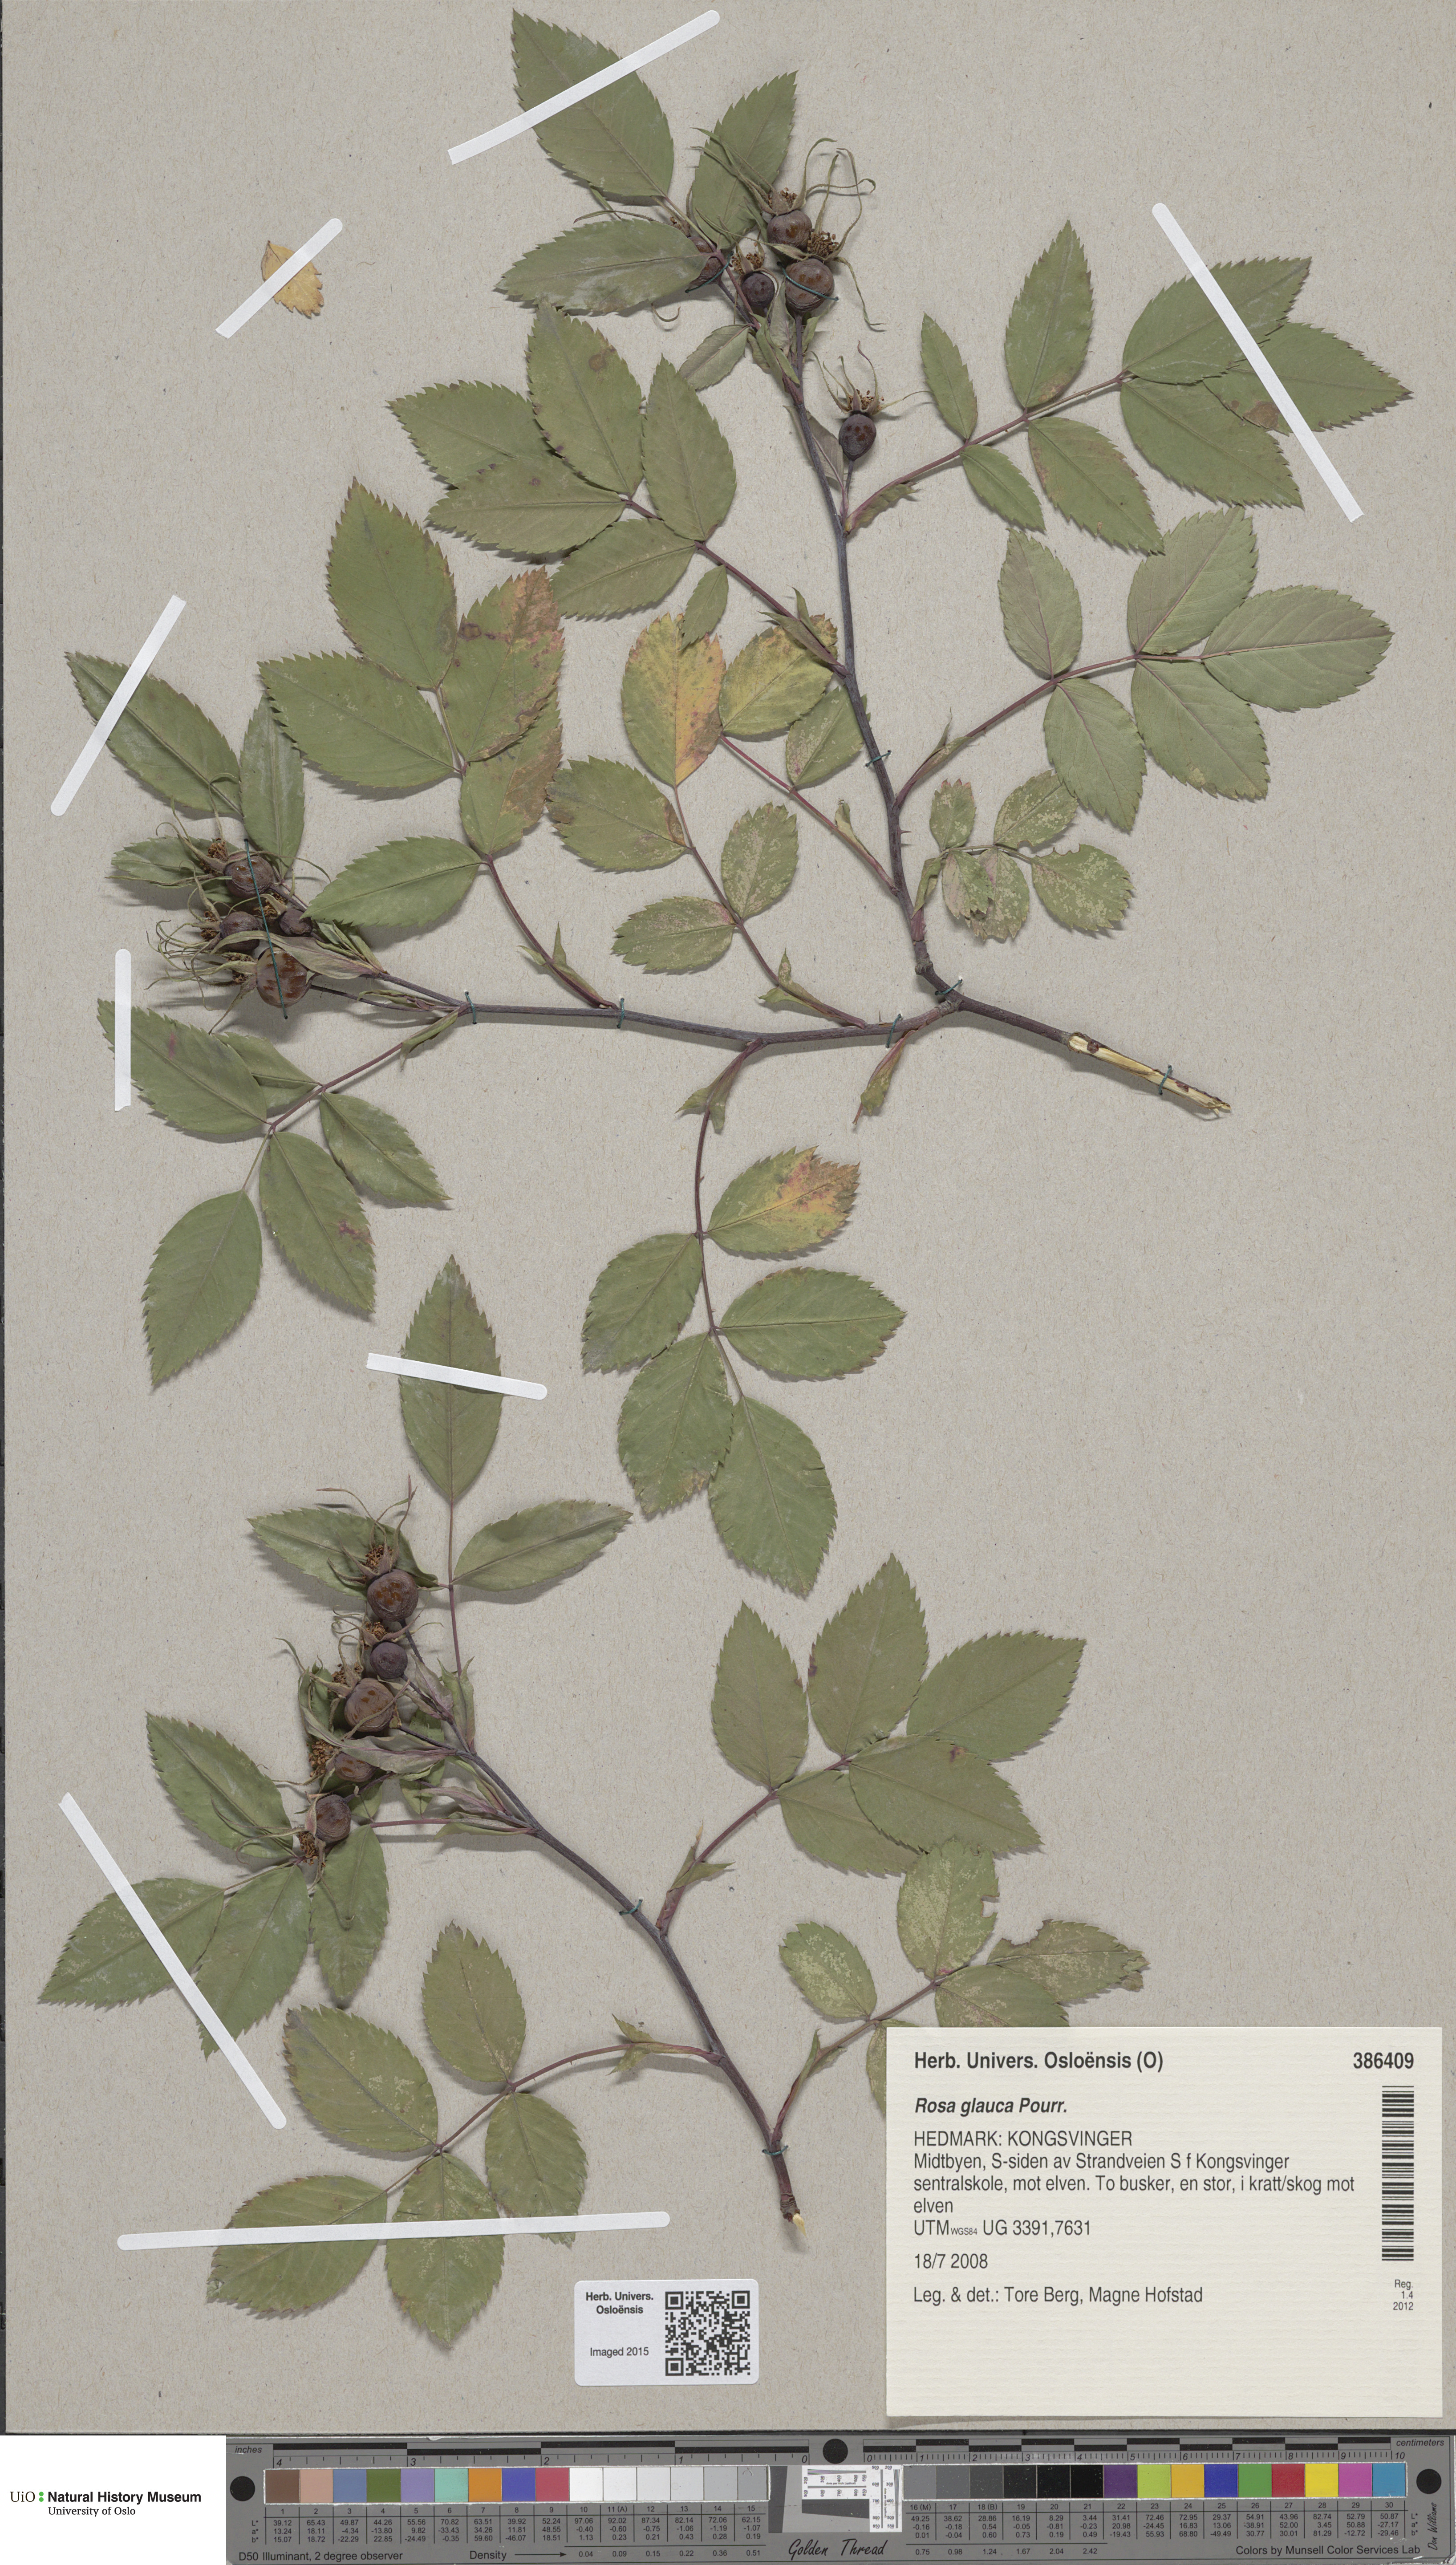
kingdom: Plantae
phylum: Tracheophyta
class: Magnoliopsida
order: Rosales
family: Rosaceae
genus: Rosa
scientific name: Rosa glauca
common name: Redleaf rose
